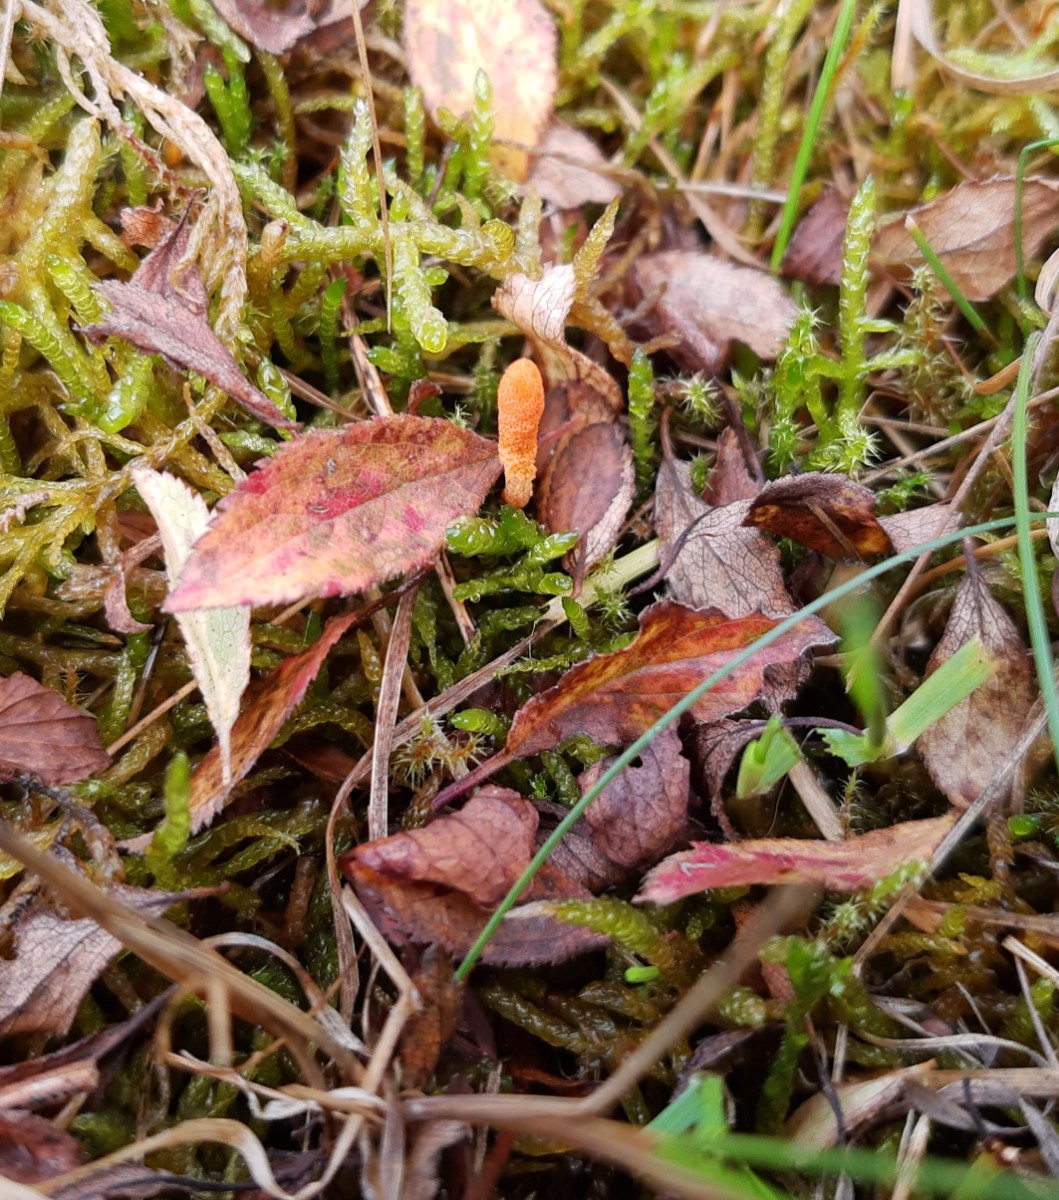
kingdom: Fungi
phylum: Ascomycota
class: Sordariomycetes
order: Hypocreales
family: Cordycipitaceae
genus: Cordyceps
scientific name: Cordyceps militaris
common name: puppe-snyltekølle
